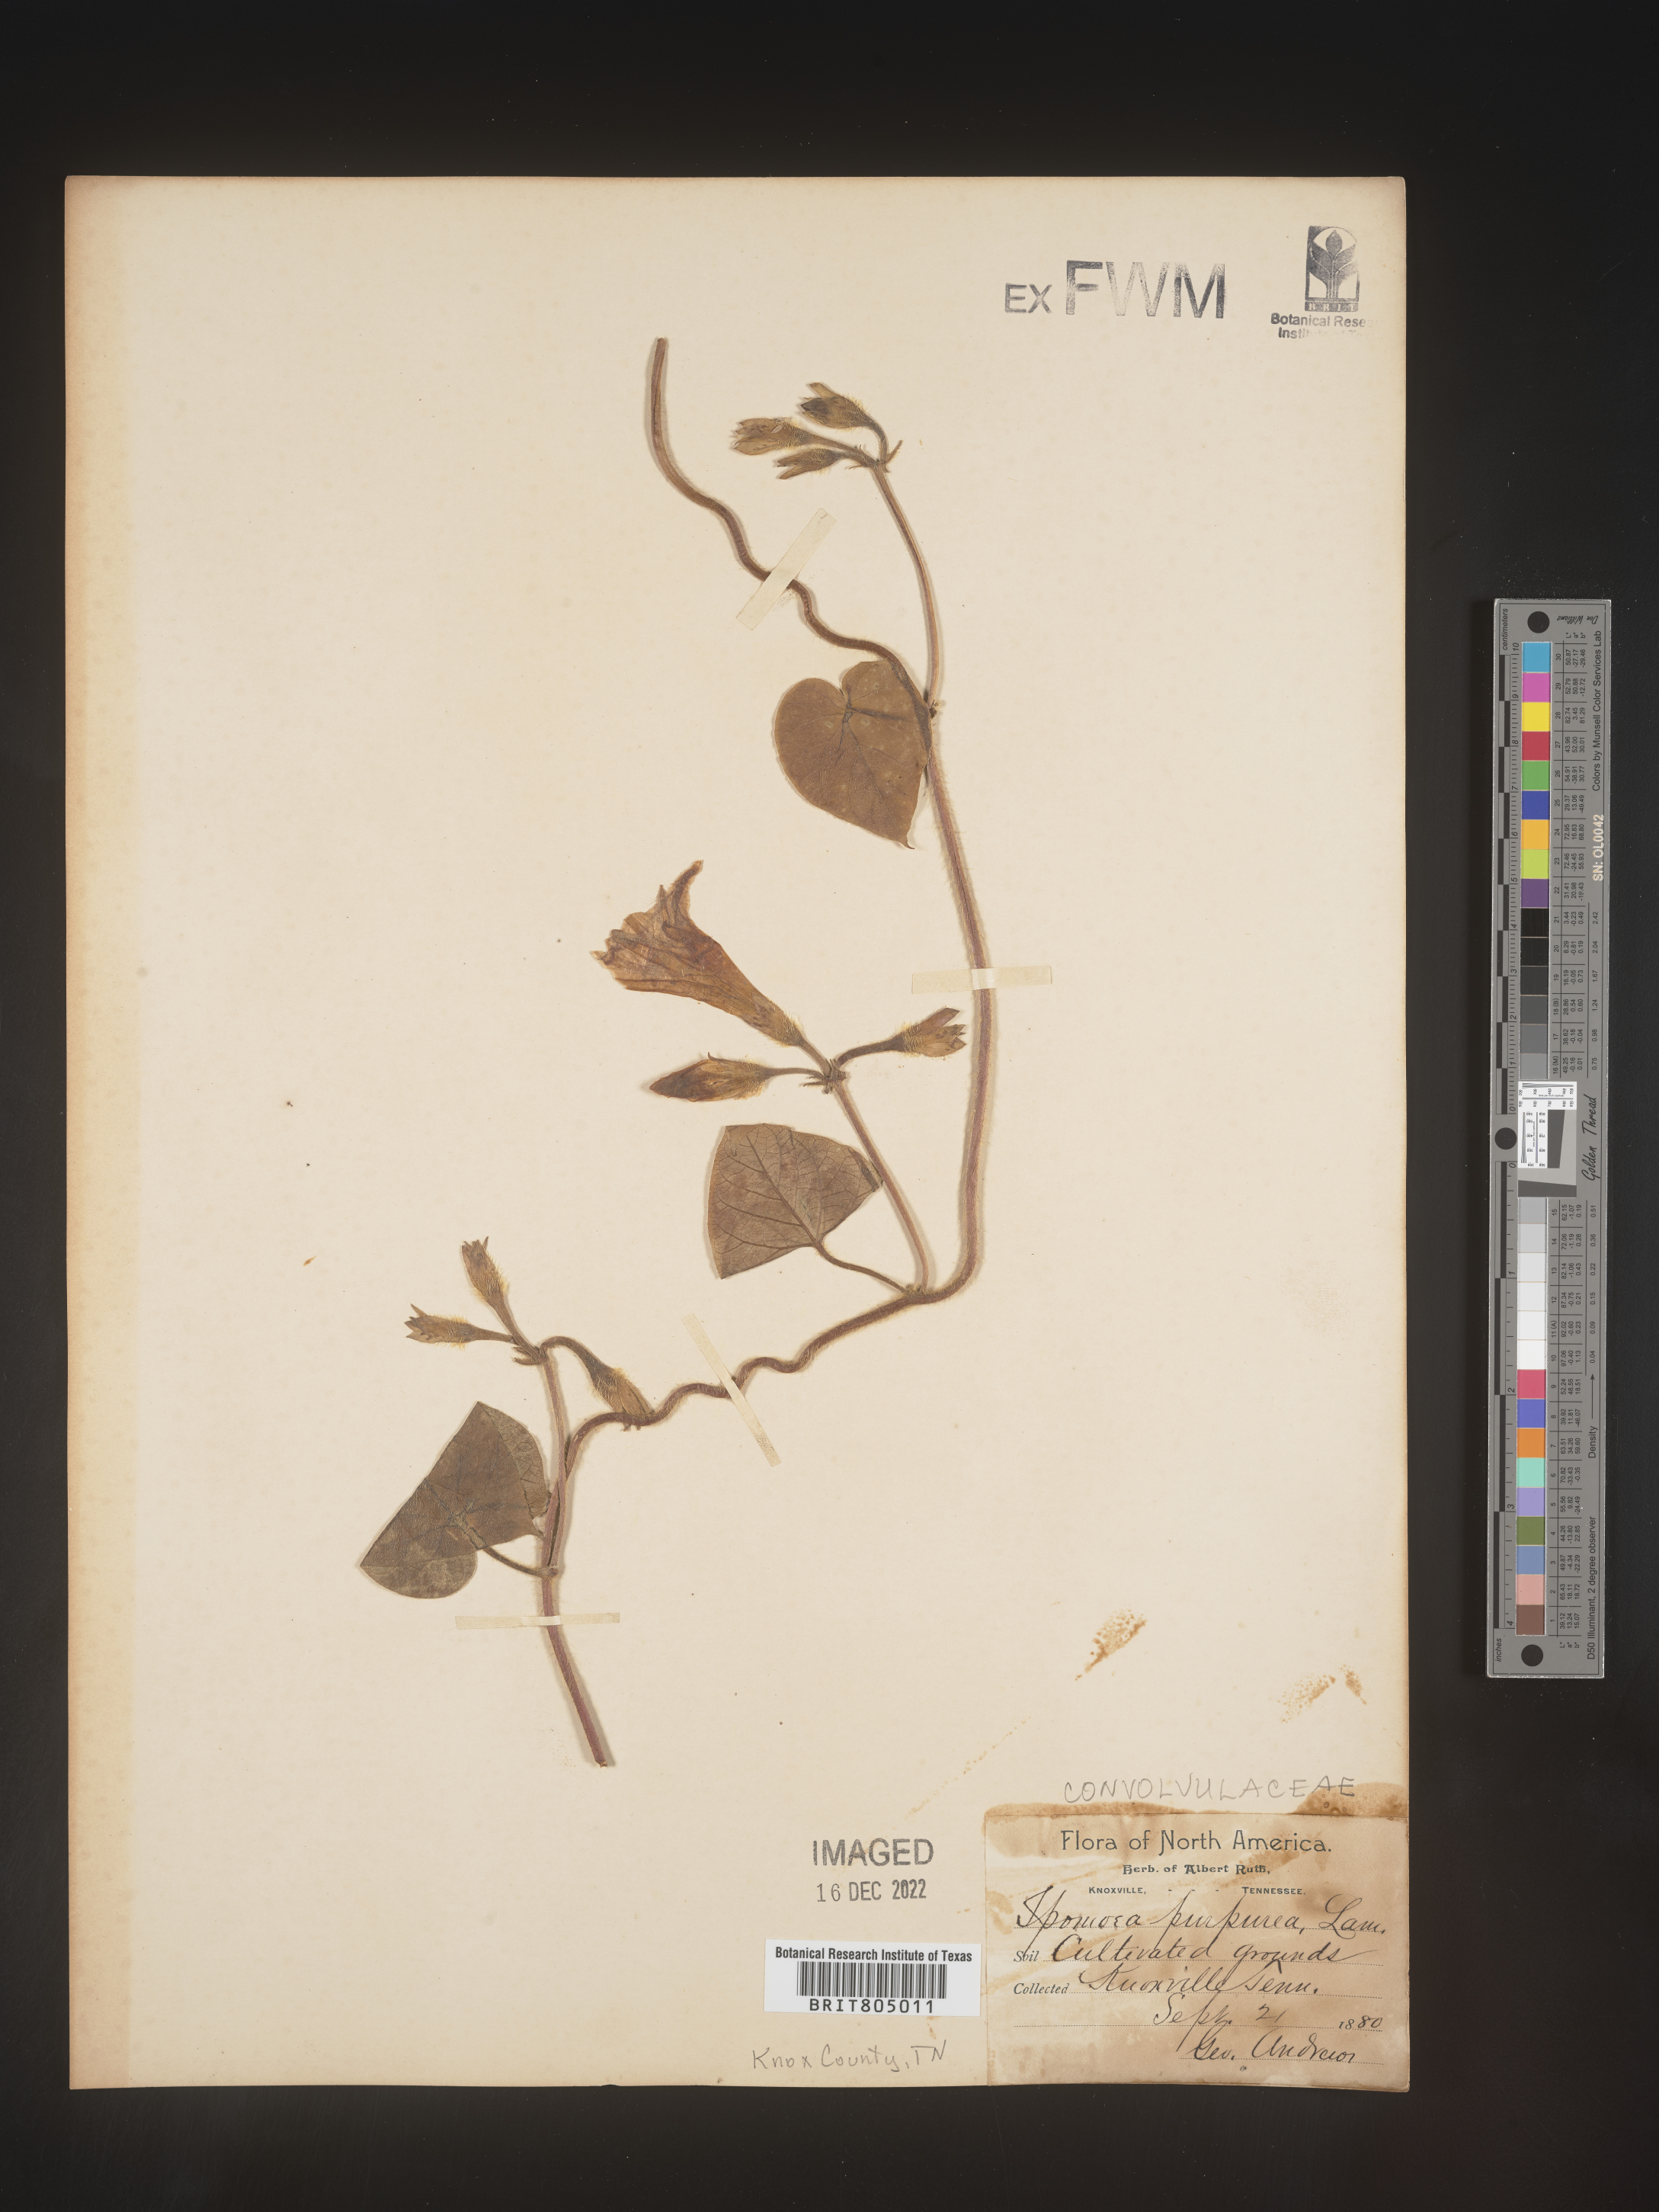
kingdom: Plantae
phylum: Tracheophyta
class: Magnoliopsida
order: Solanales
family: Convolvulaceae
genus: Ipomoea
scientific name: Ipomoea purpurea
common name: Common morning-glory
